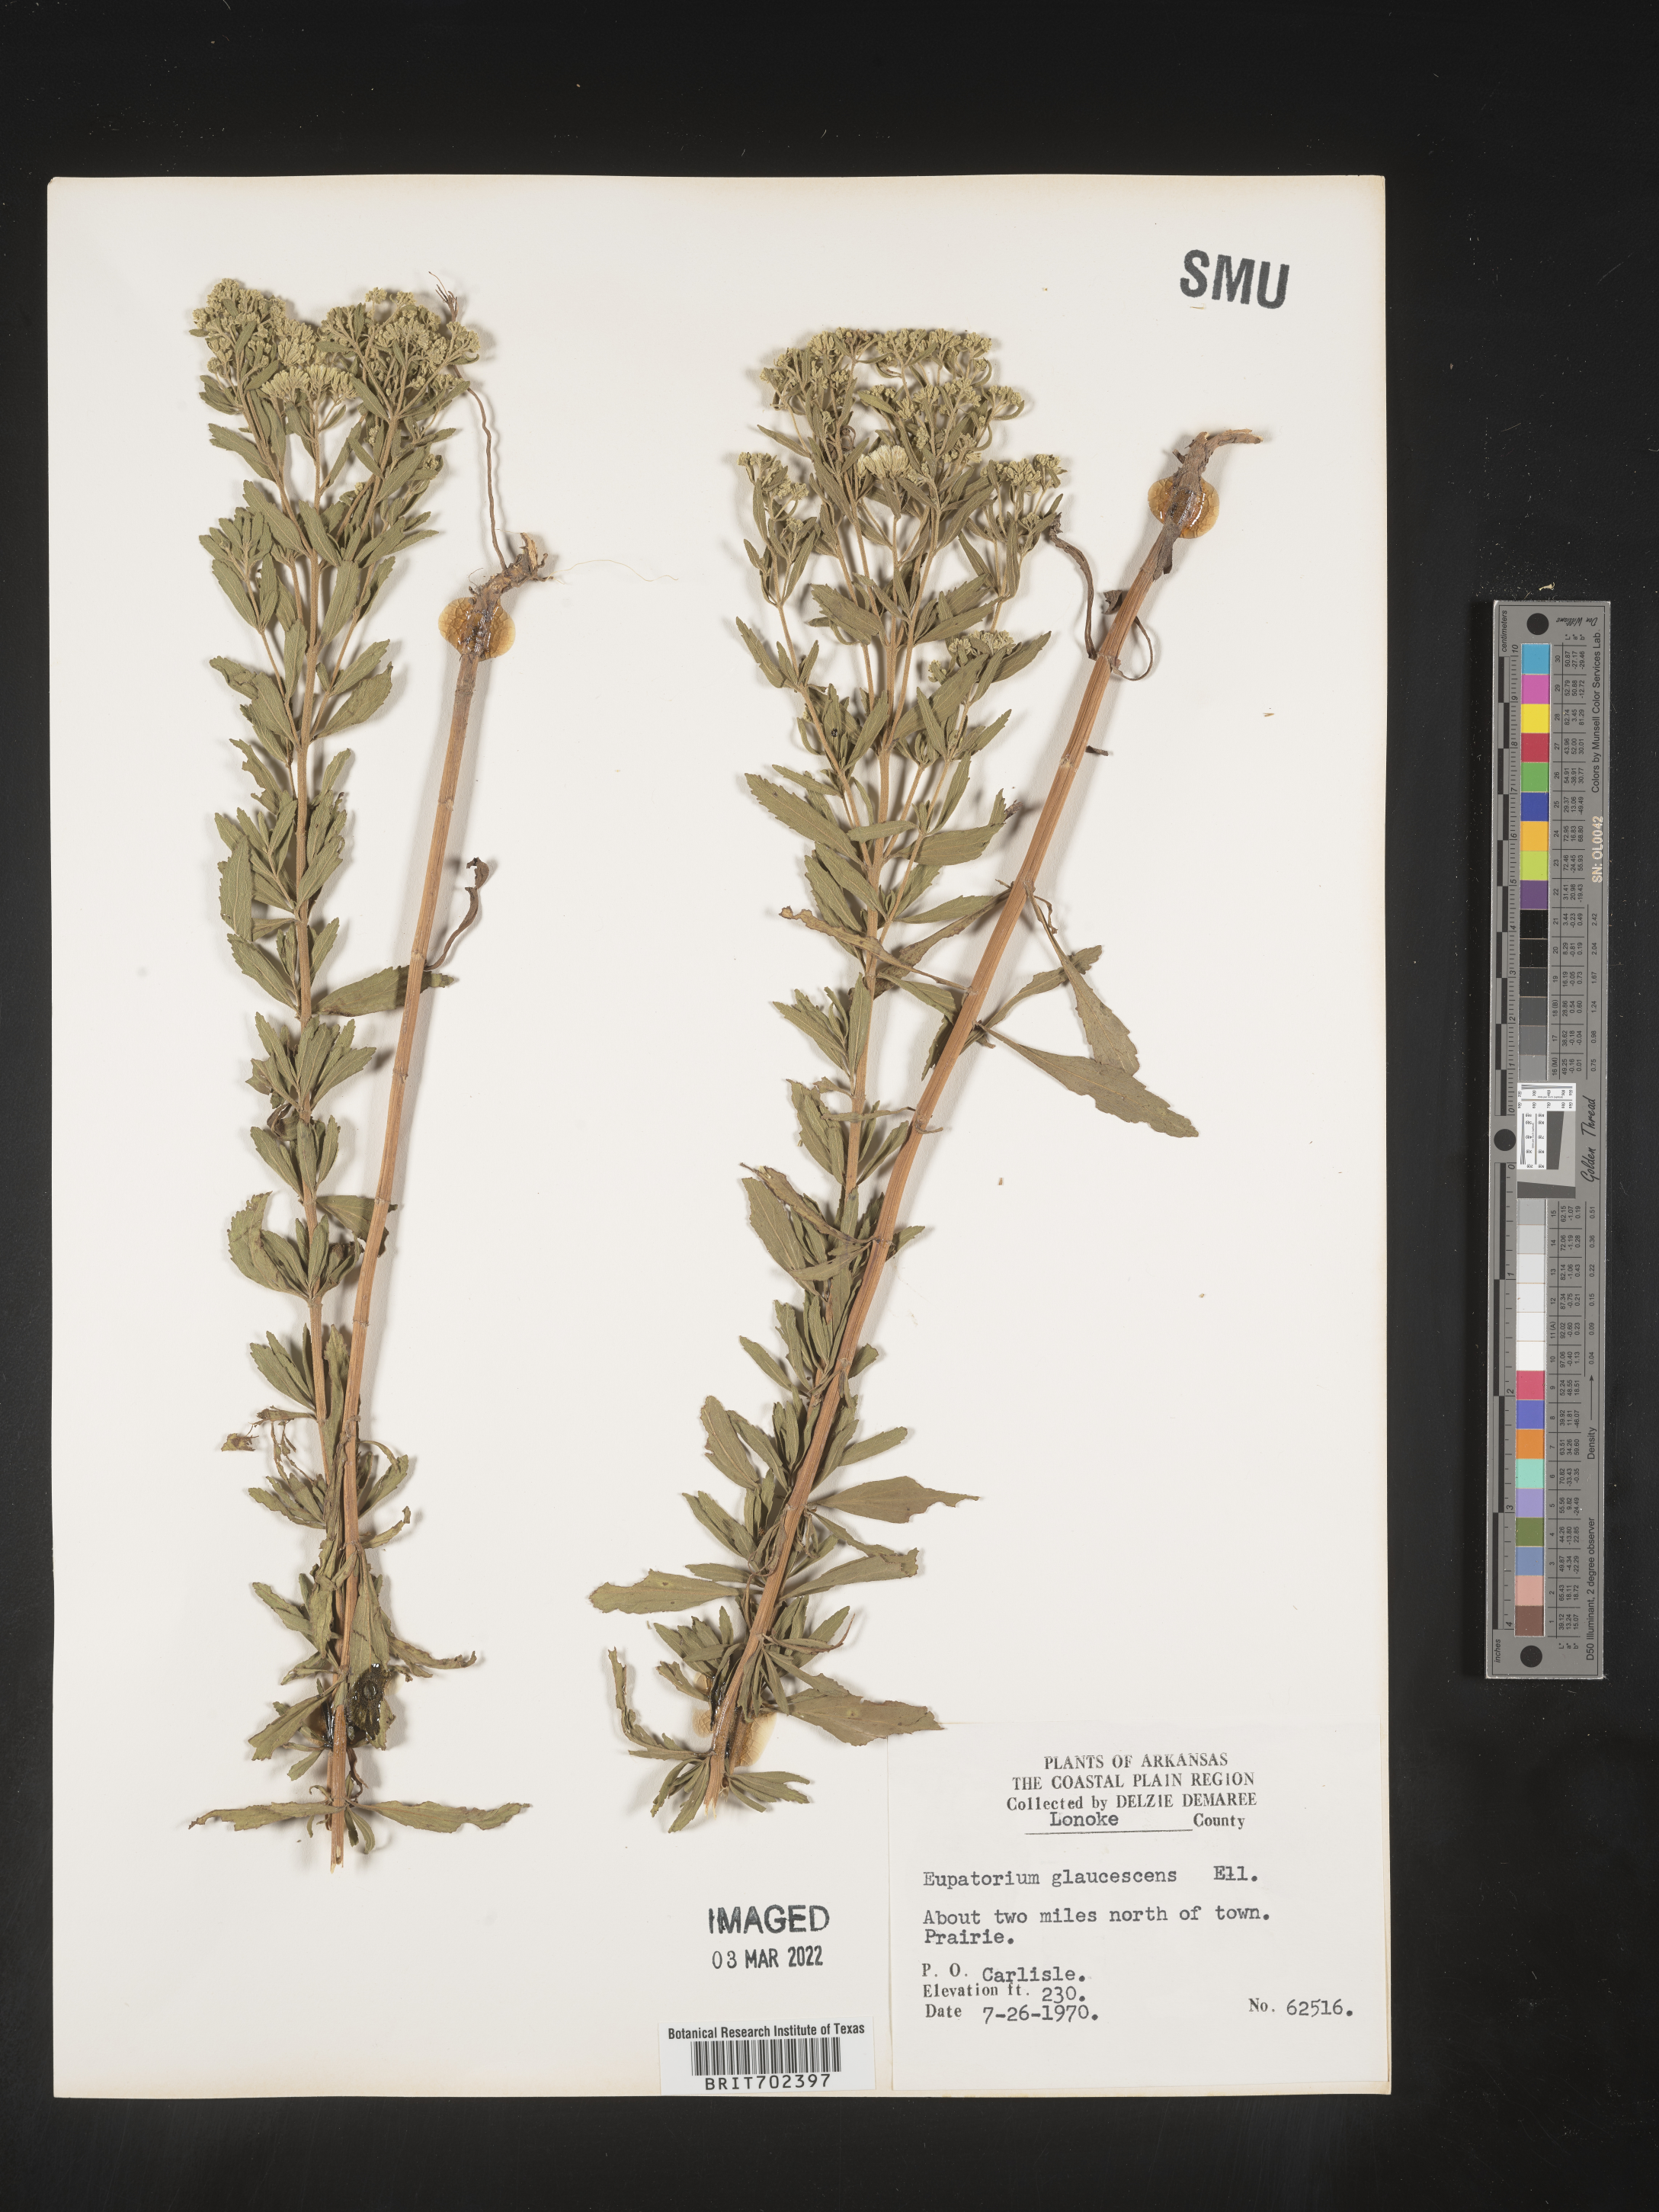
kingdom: Plantae
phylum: Tracheophyta
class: Magnoliopsida
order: Asterales
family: Asteraceae
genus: Eupatorium
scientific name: Eupatorium semiserratum
